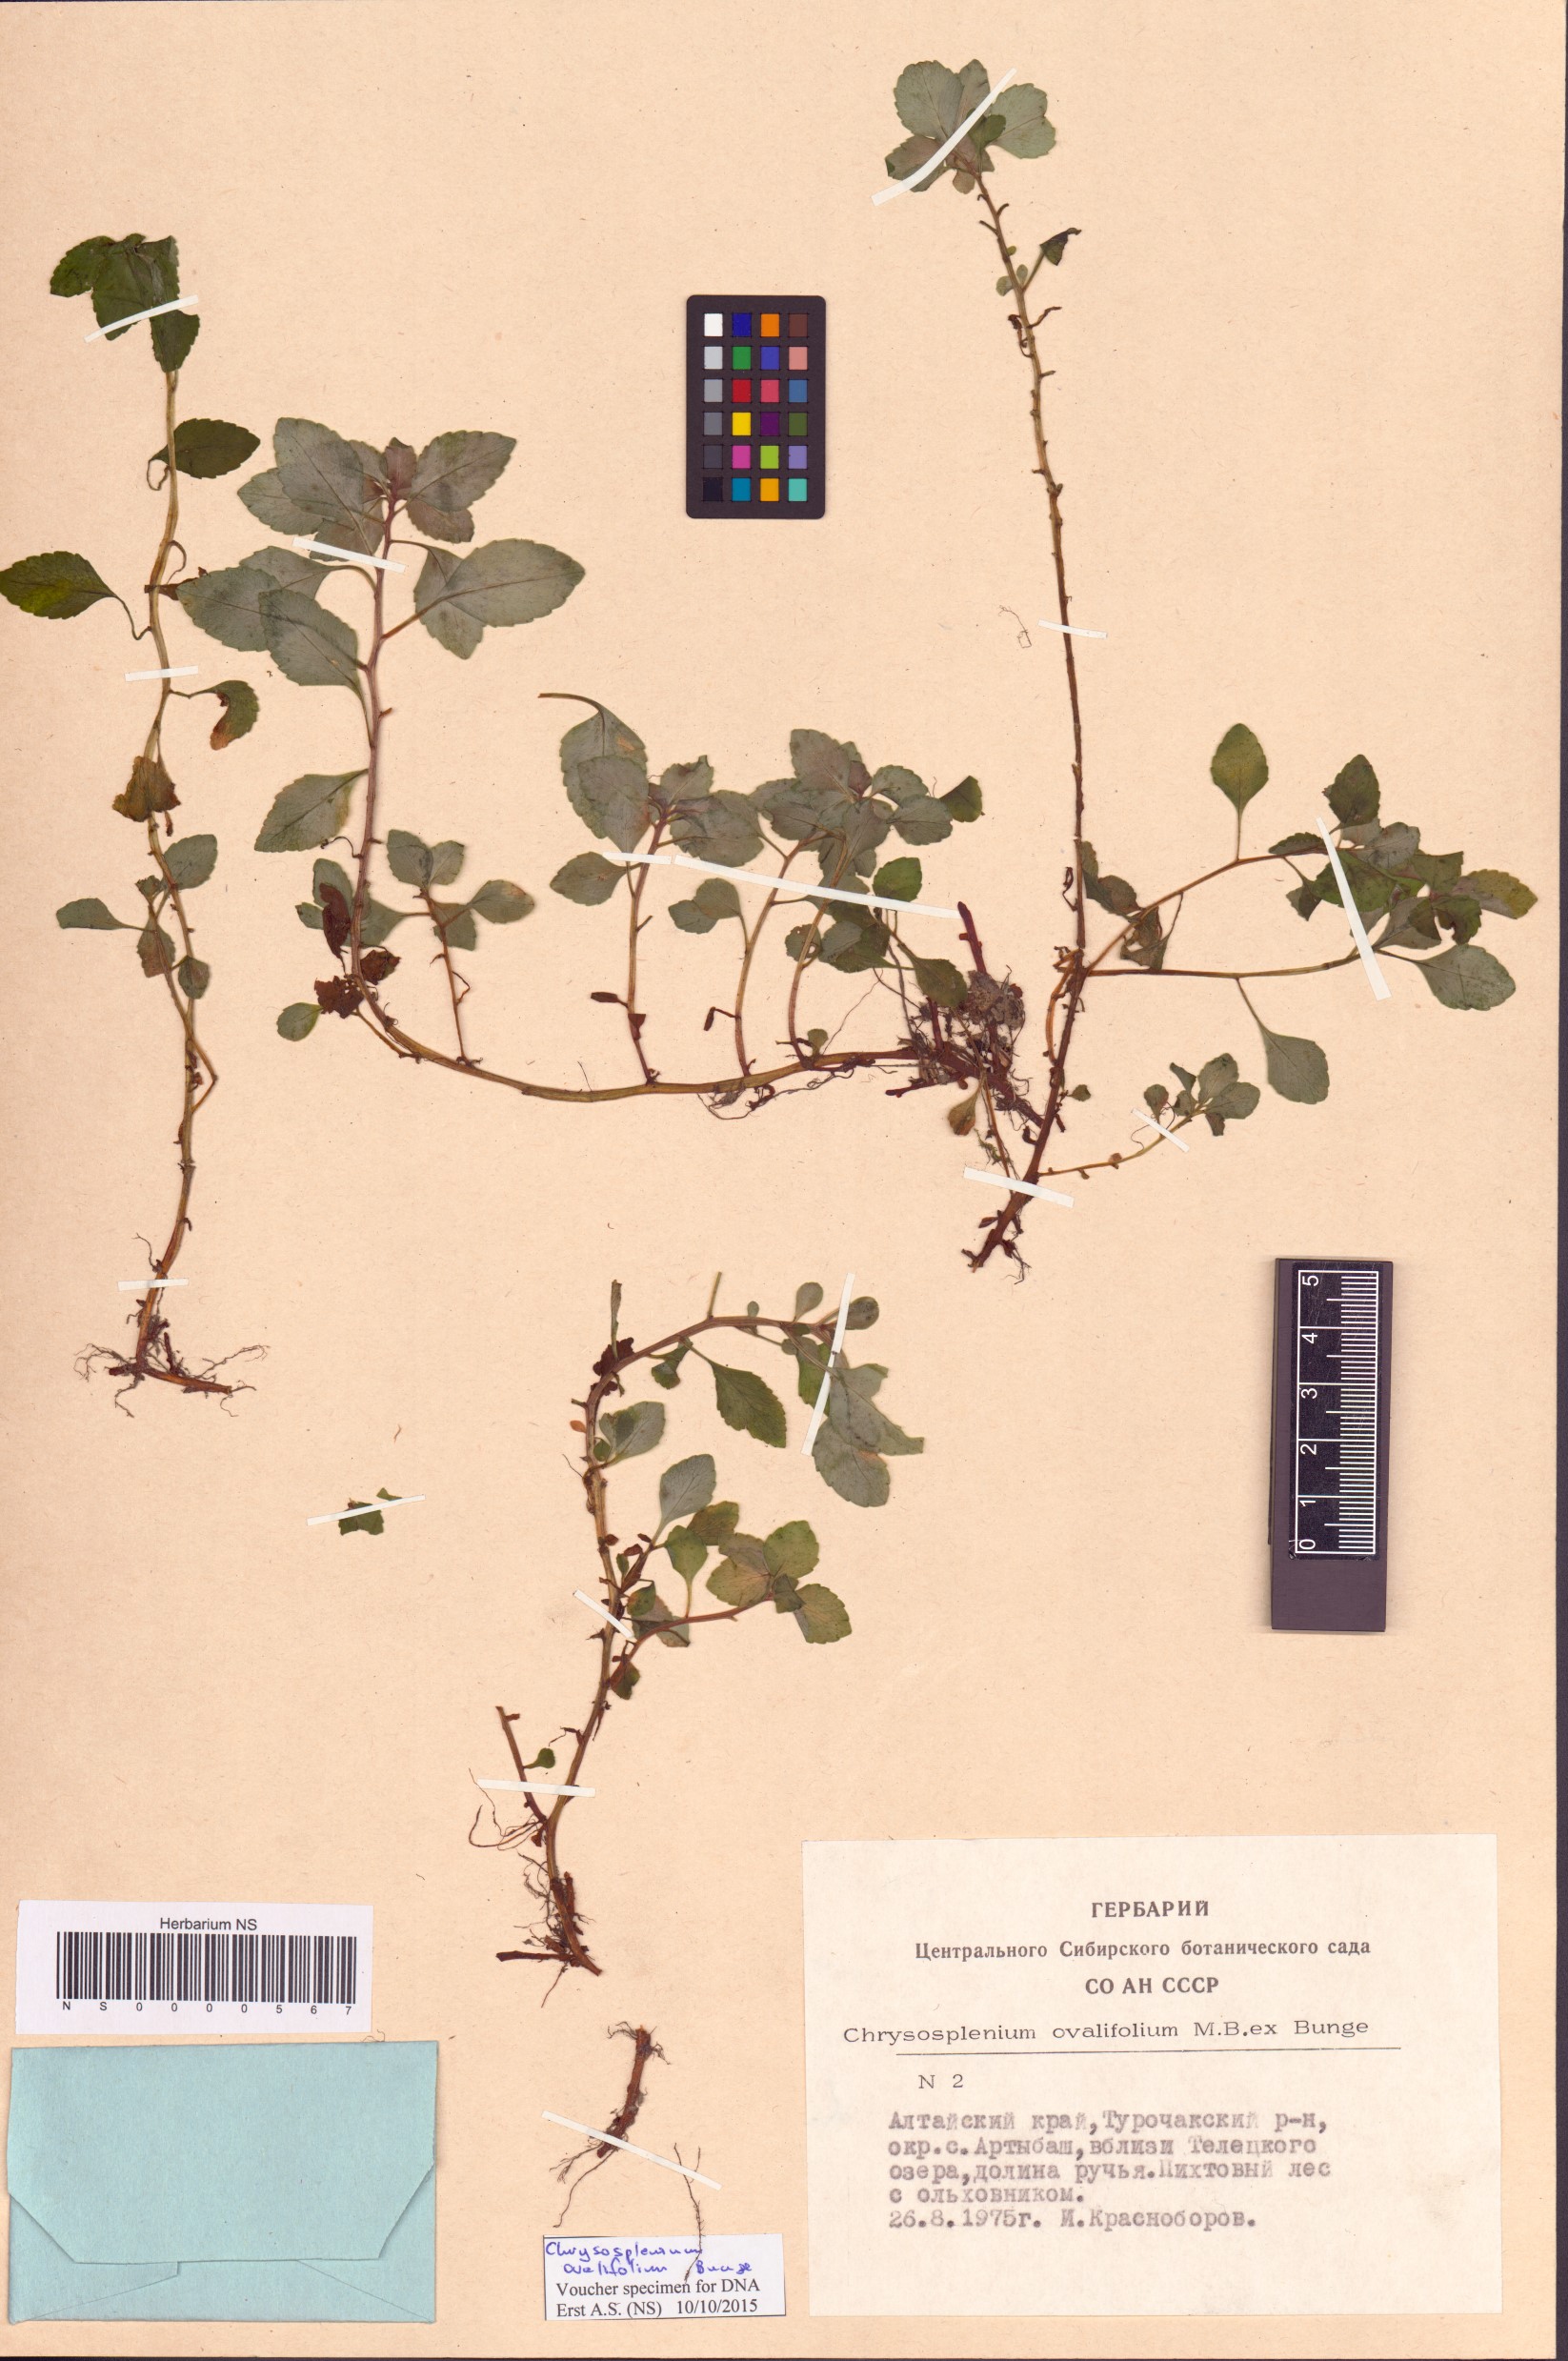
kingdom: Plantae
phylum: Tracheophyta
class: Magnoliopsida
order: Saxifragales
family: Saxifragaceae
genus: Chrysosplenium
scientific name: Chrysosplenium ovalifolium
